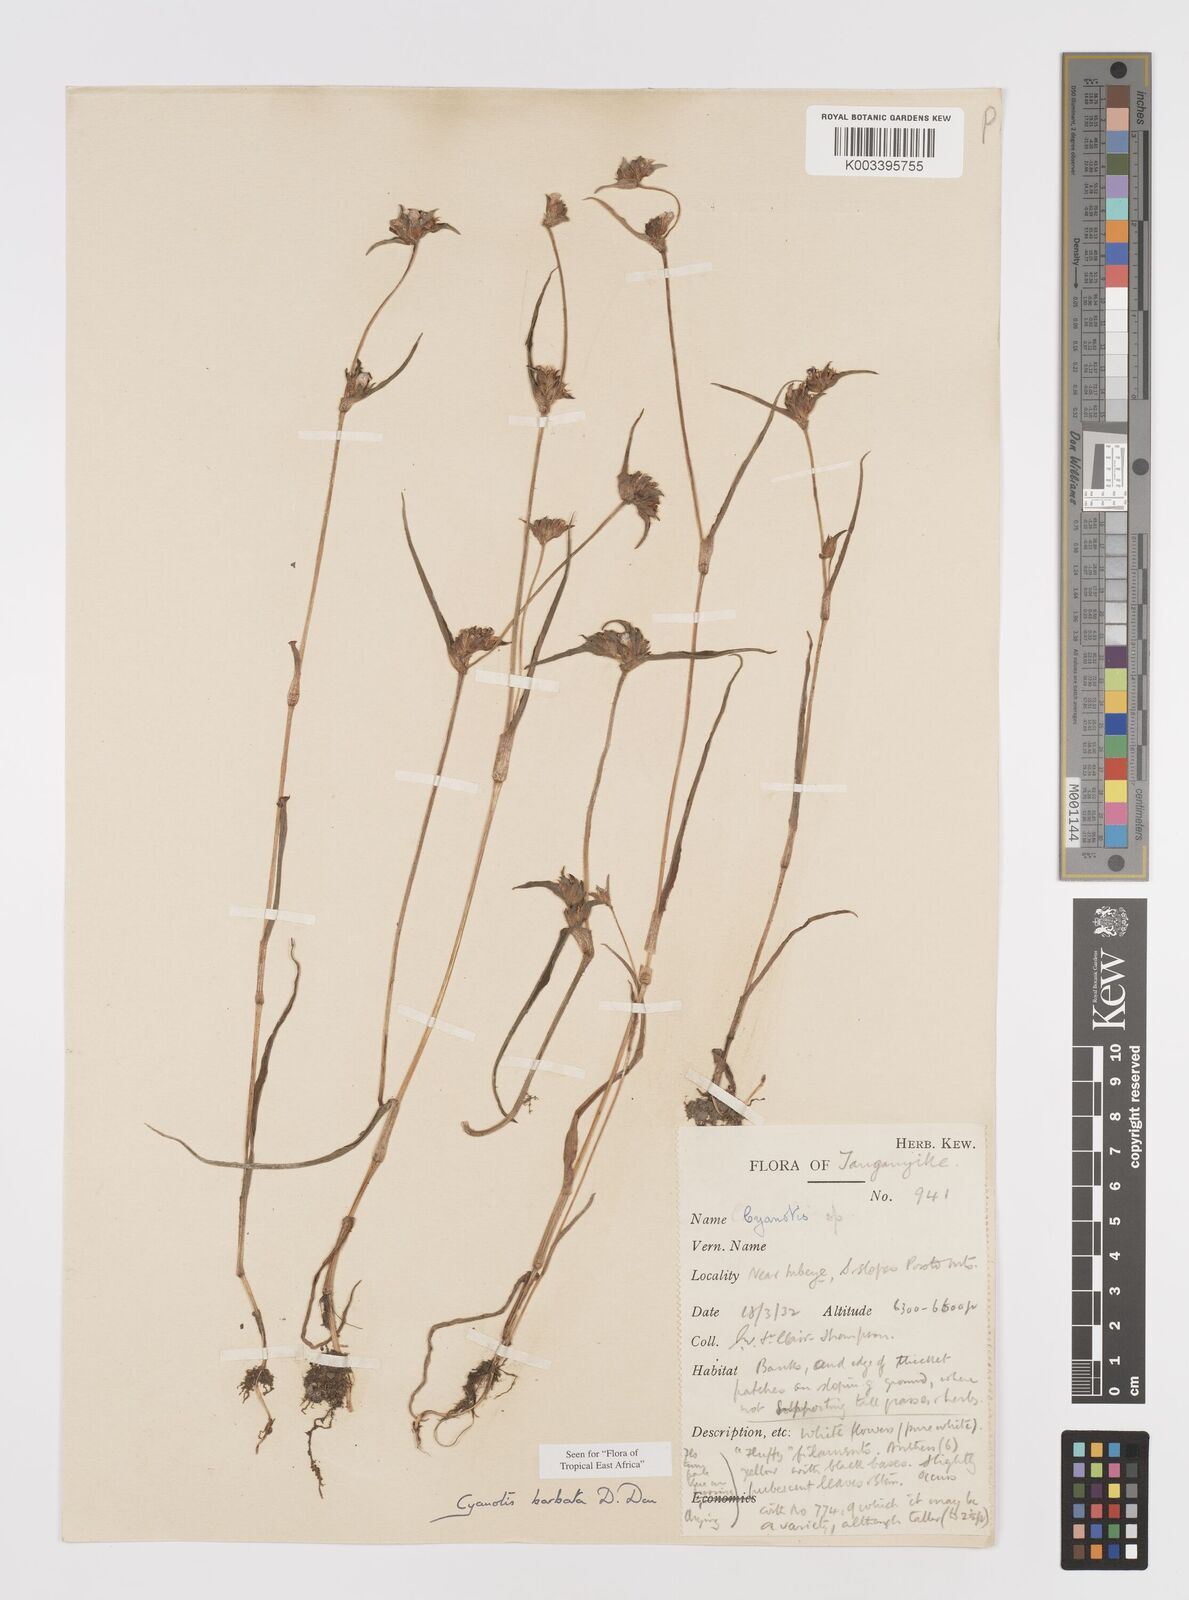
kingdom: Plantae
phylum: Tracheophyta
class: Liliopsida
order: Commelinales
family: Commelinaceae
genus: Cyanotis
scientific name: Cyanotis vaga
